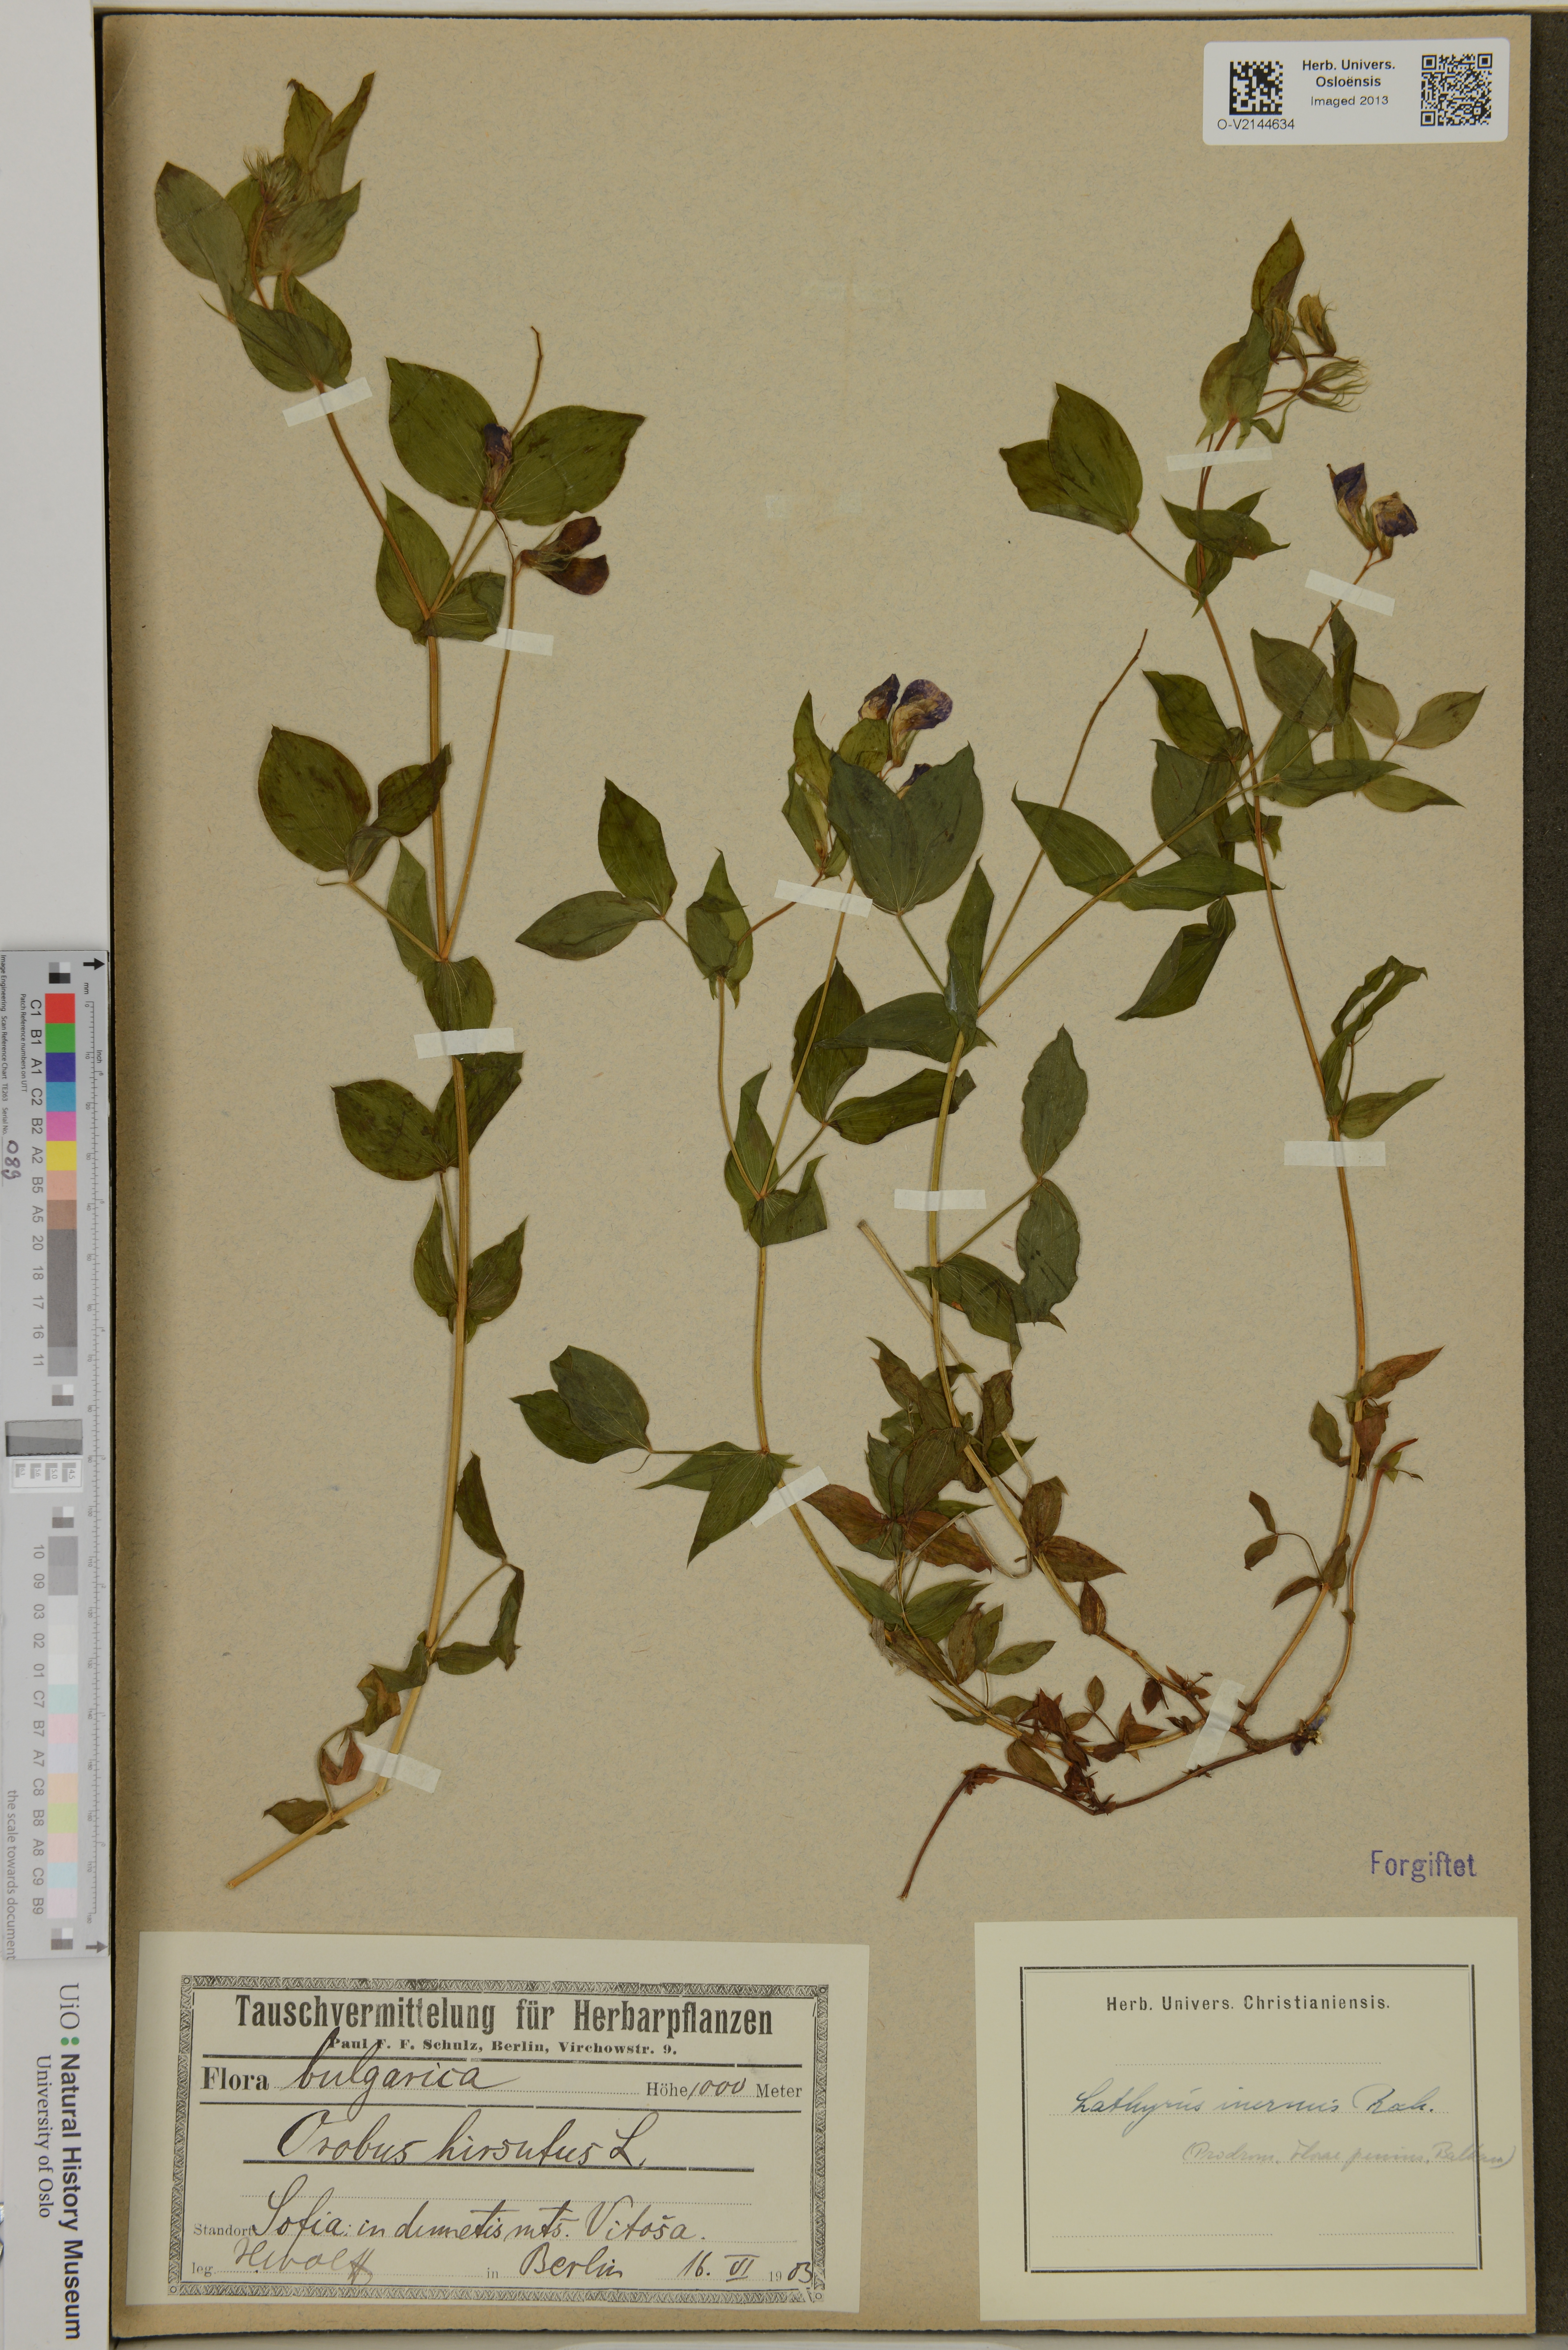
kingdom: Plantae
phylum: Tracheophyta
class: Magnoliopsida
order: Fabales
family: Fabaceae
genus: Lathyrus
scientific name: Lathyrus laxiflorus
